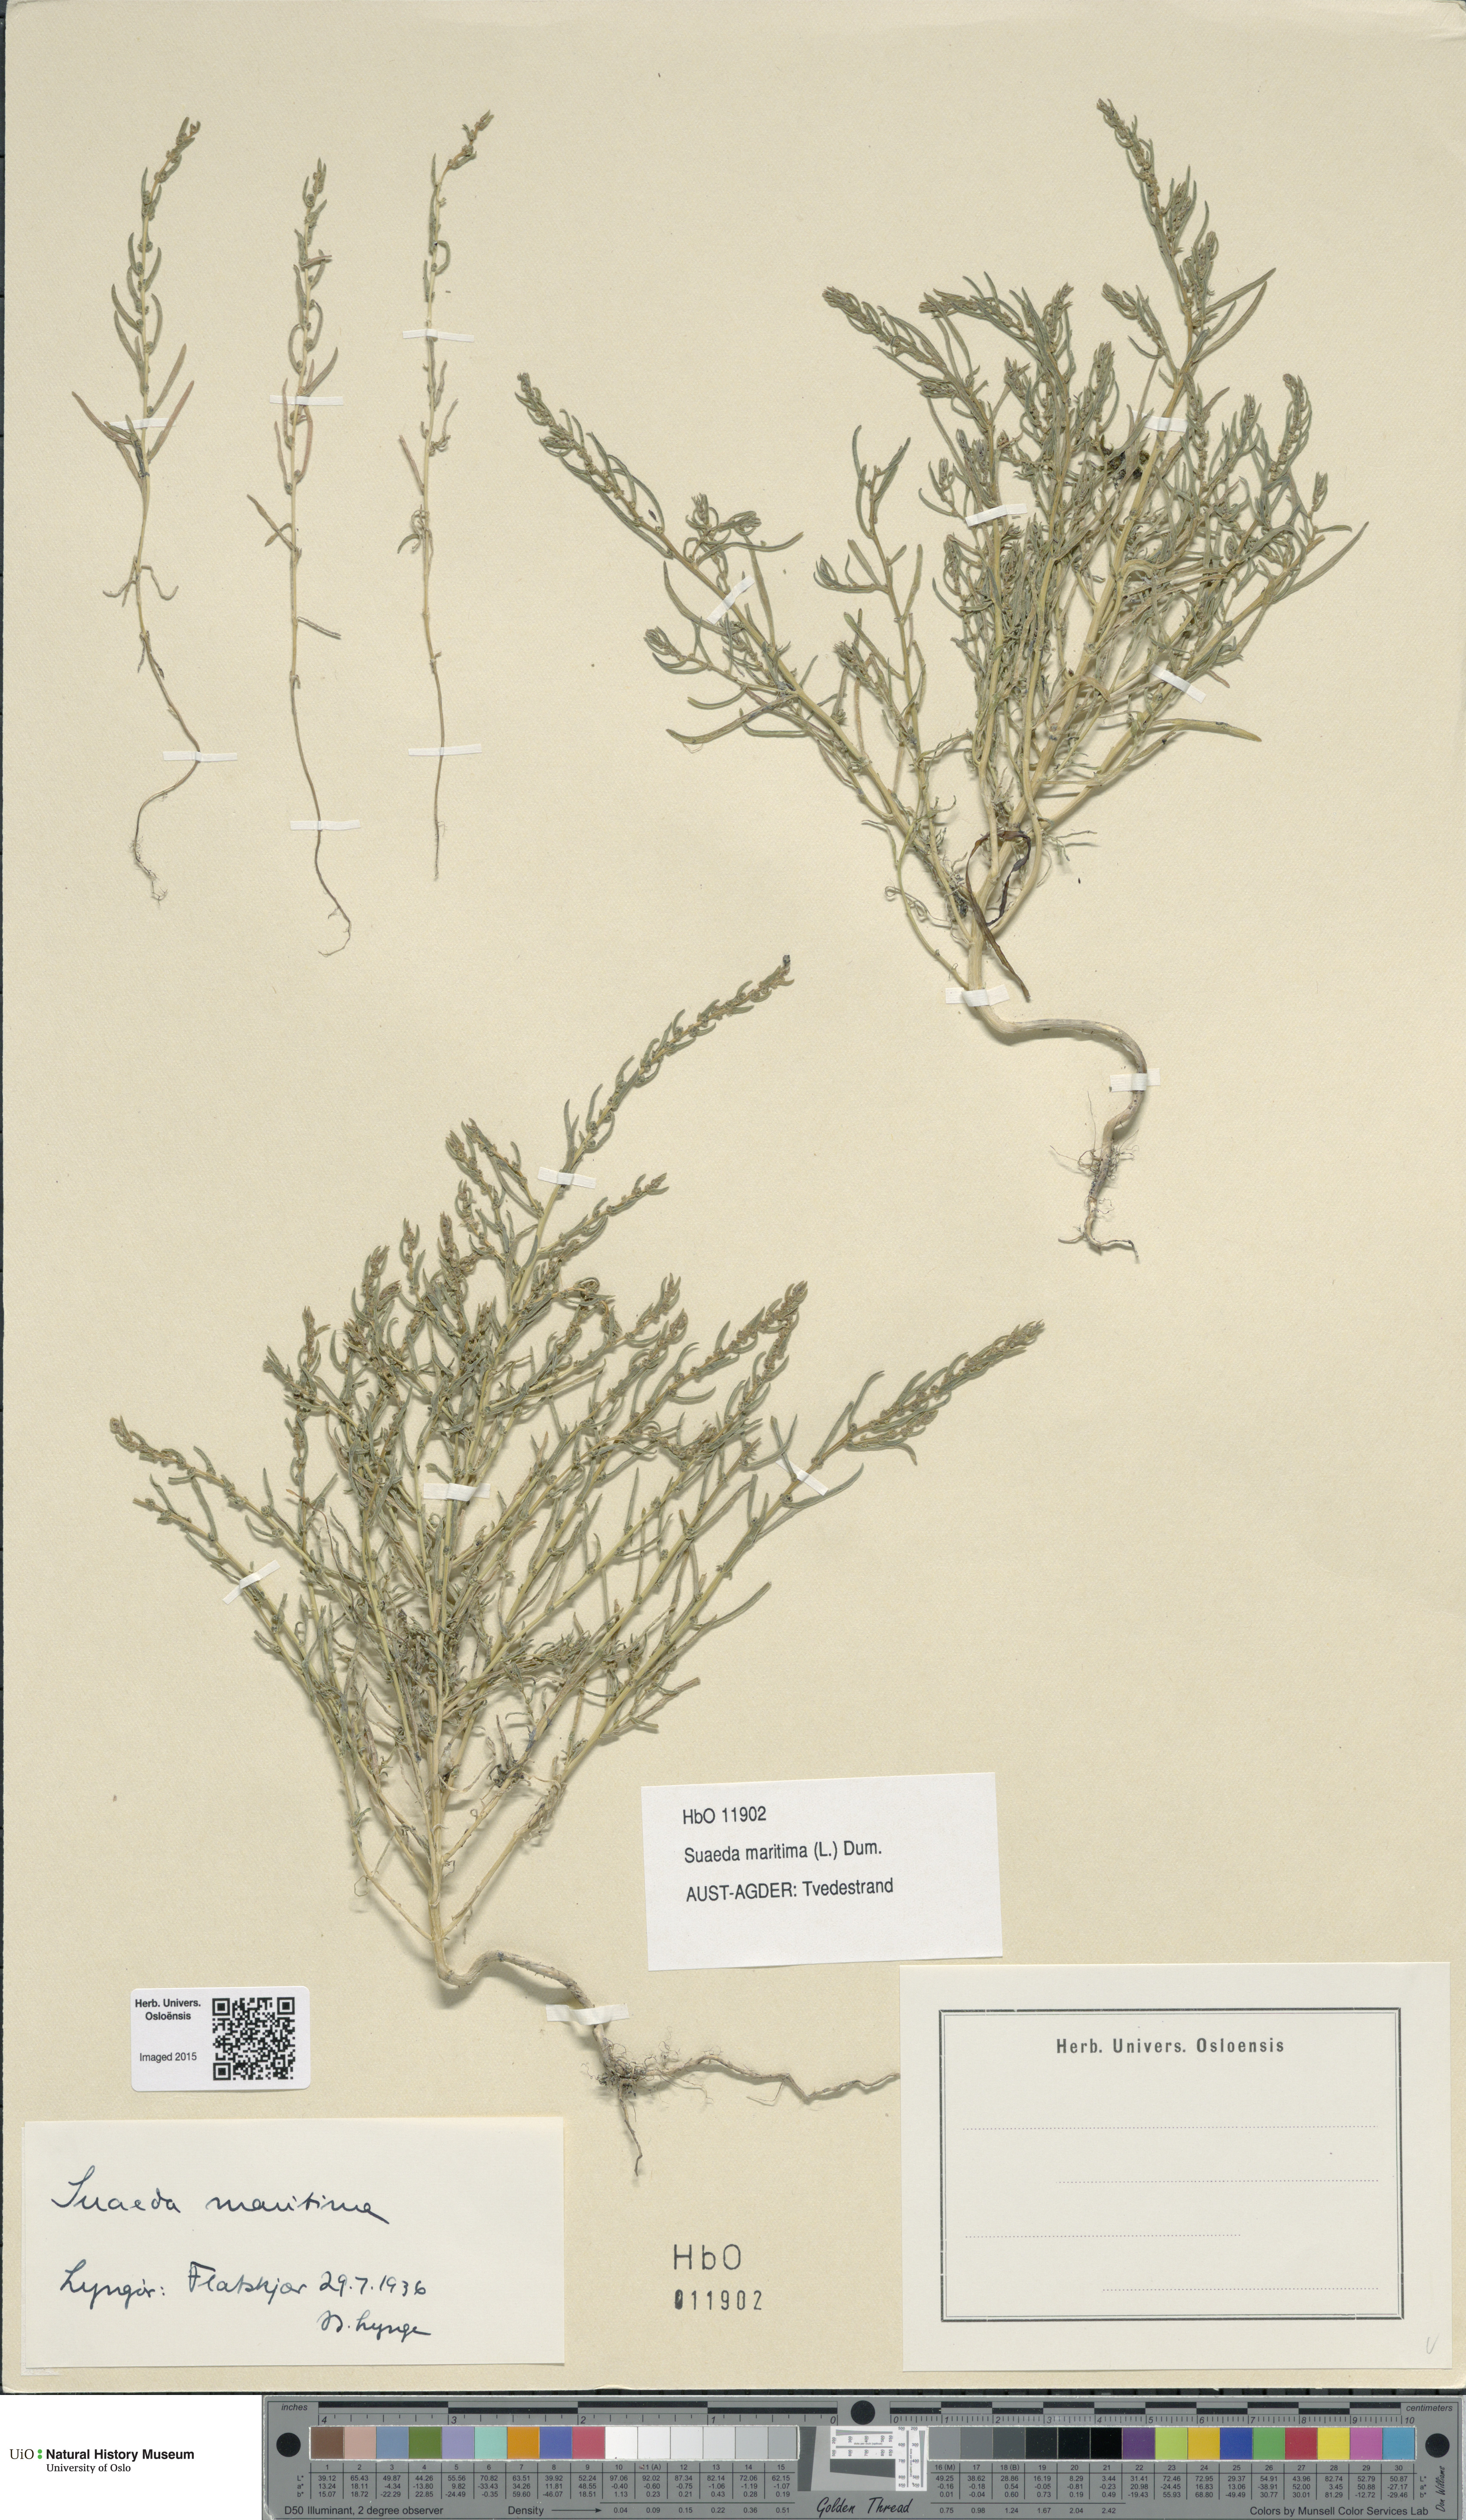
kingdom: Plantae
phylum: Tracheophyta
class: Magnoliopsida
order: Caryophyllales
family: Amaranthaceae
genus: Suaeda
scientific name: Suaeda maritima
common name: Annual sea-blite
